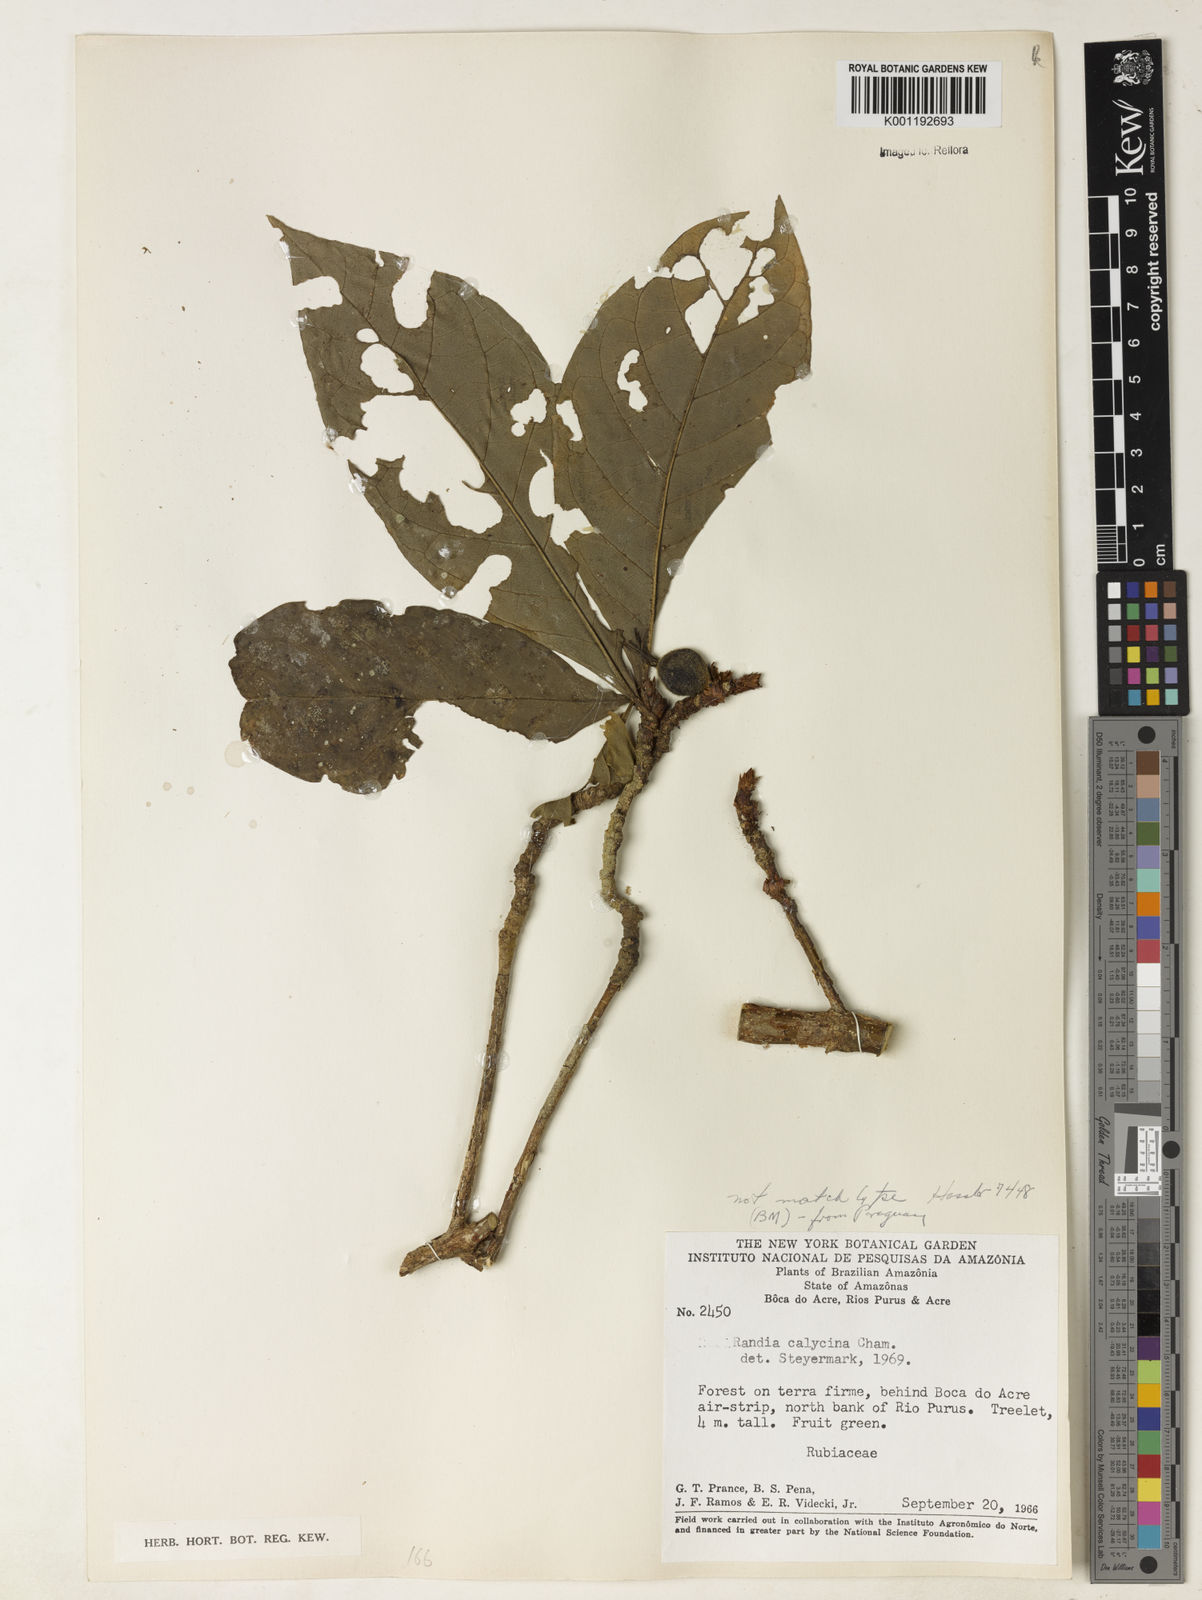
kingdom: Plantae
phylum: Tracheophyta
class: Magnoliopsida
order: Gentianales
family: Rubiaceae
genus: Randia
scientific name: Randia calycina
